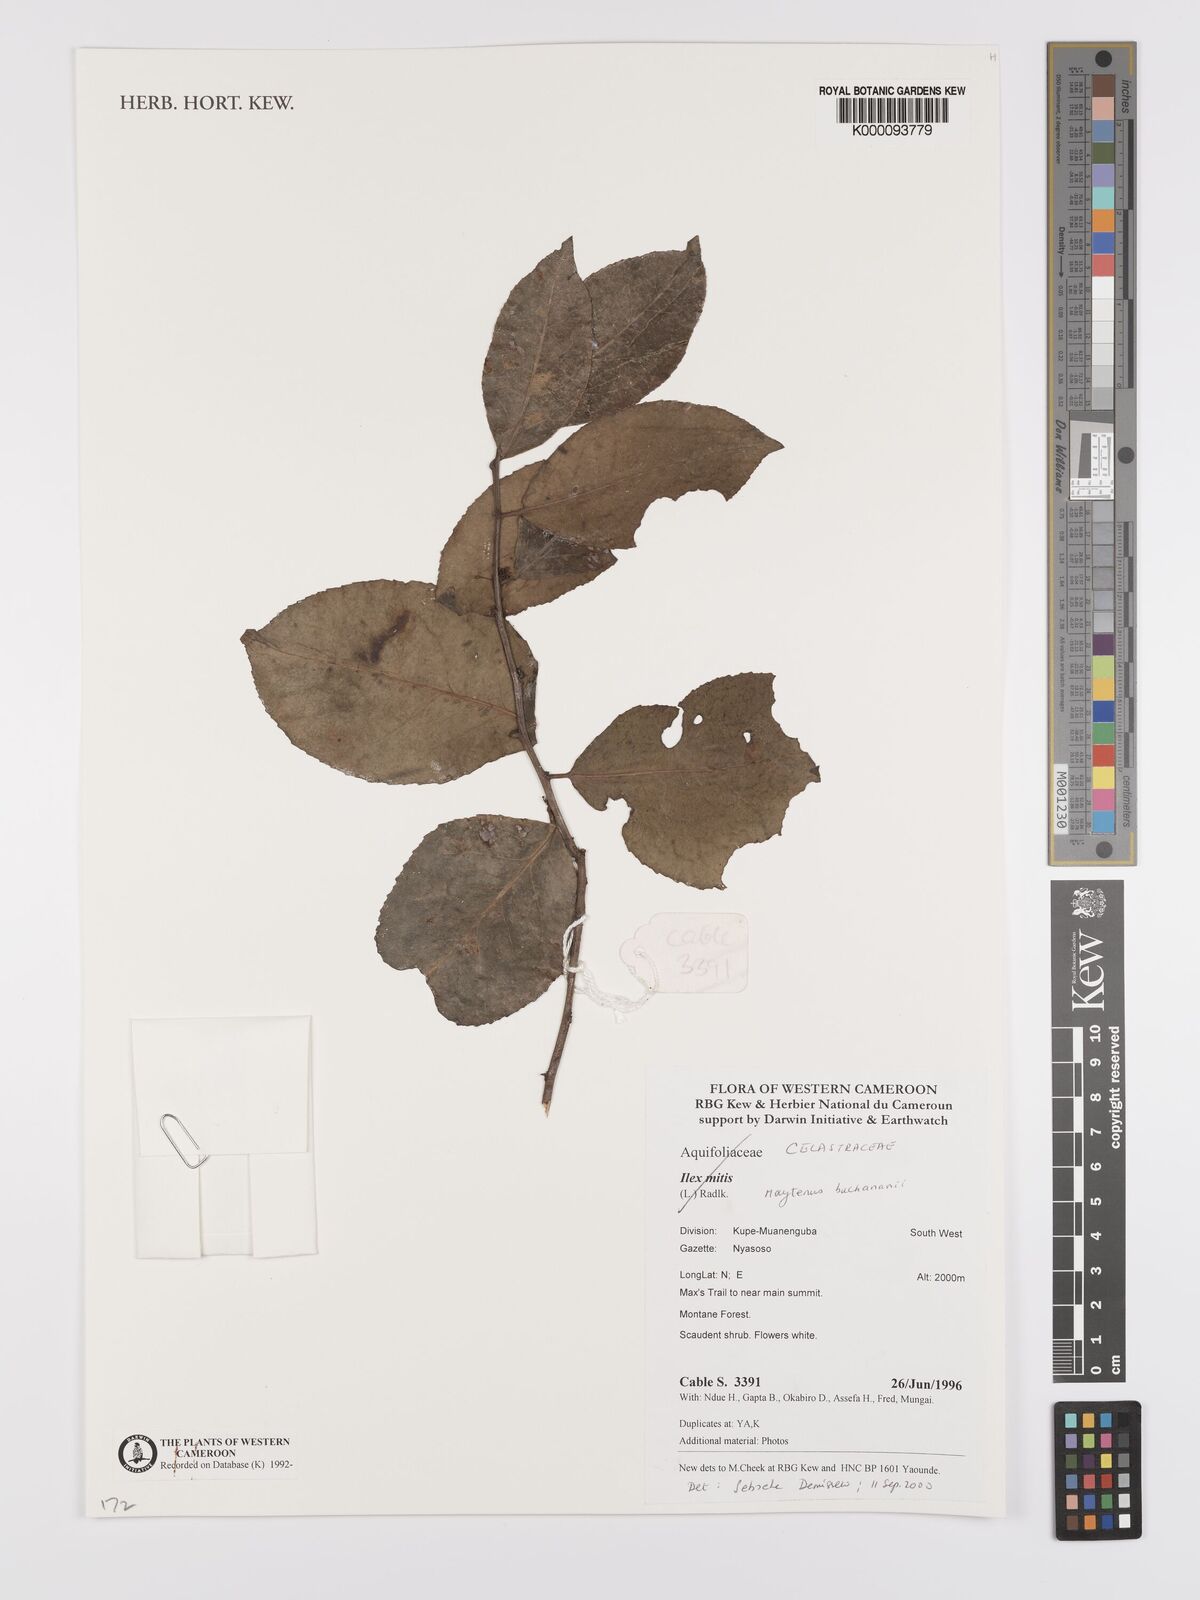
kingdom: Plantae
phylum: Tracheophyta
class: Magnoliopsida
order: Celastrales
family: Celastraceae
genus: Gymnosporia
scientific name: Gymnosporia buchananii
